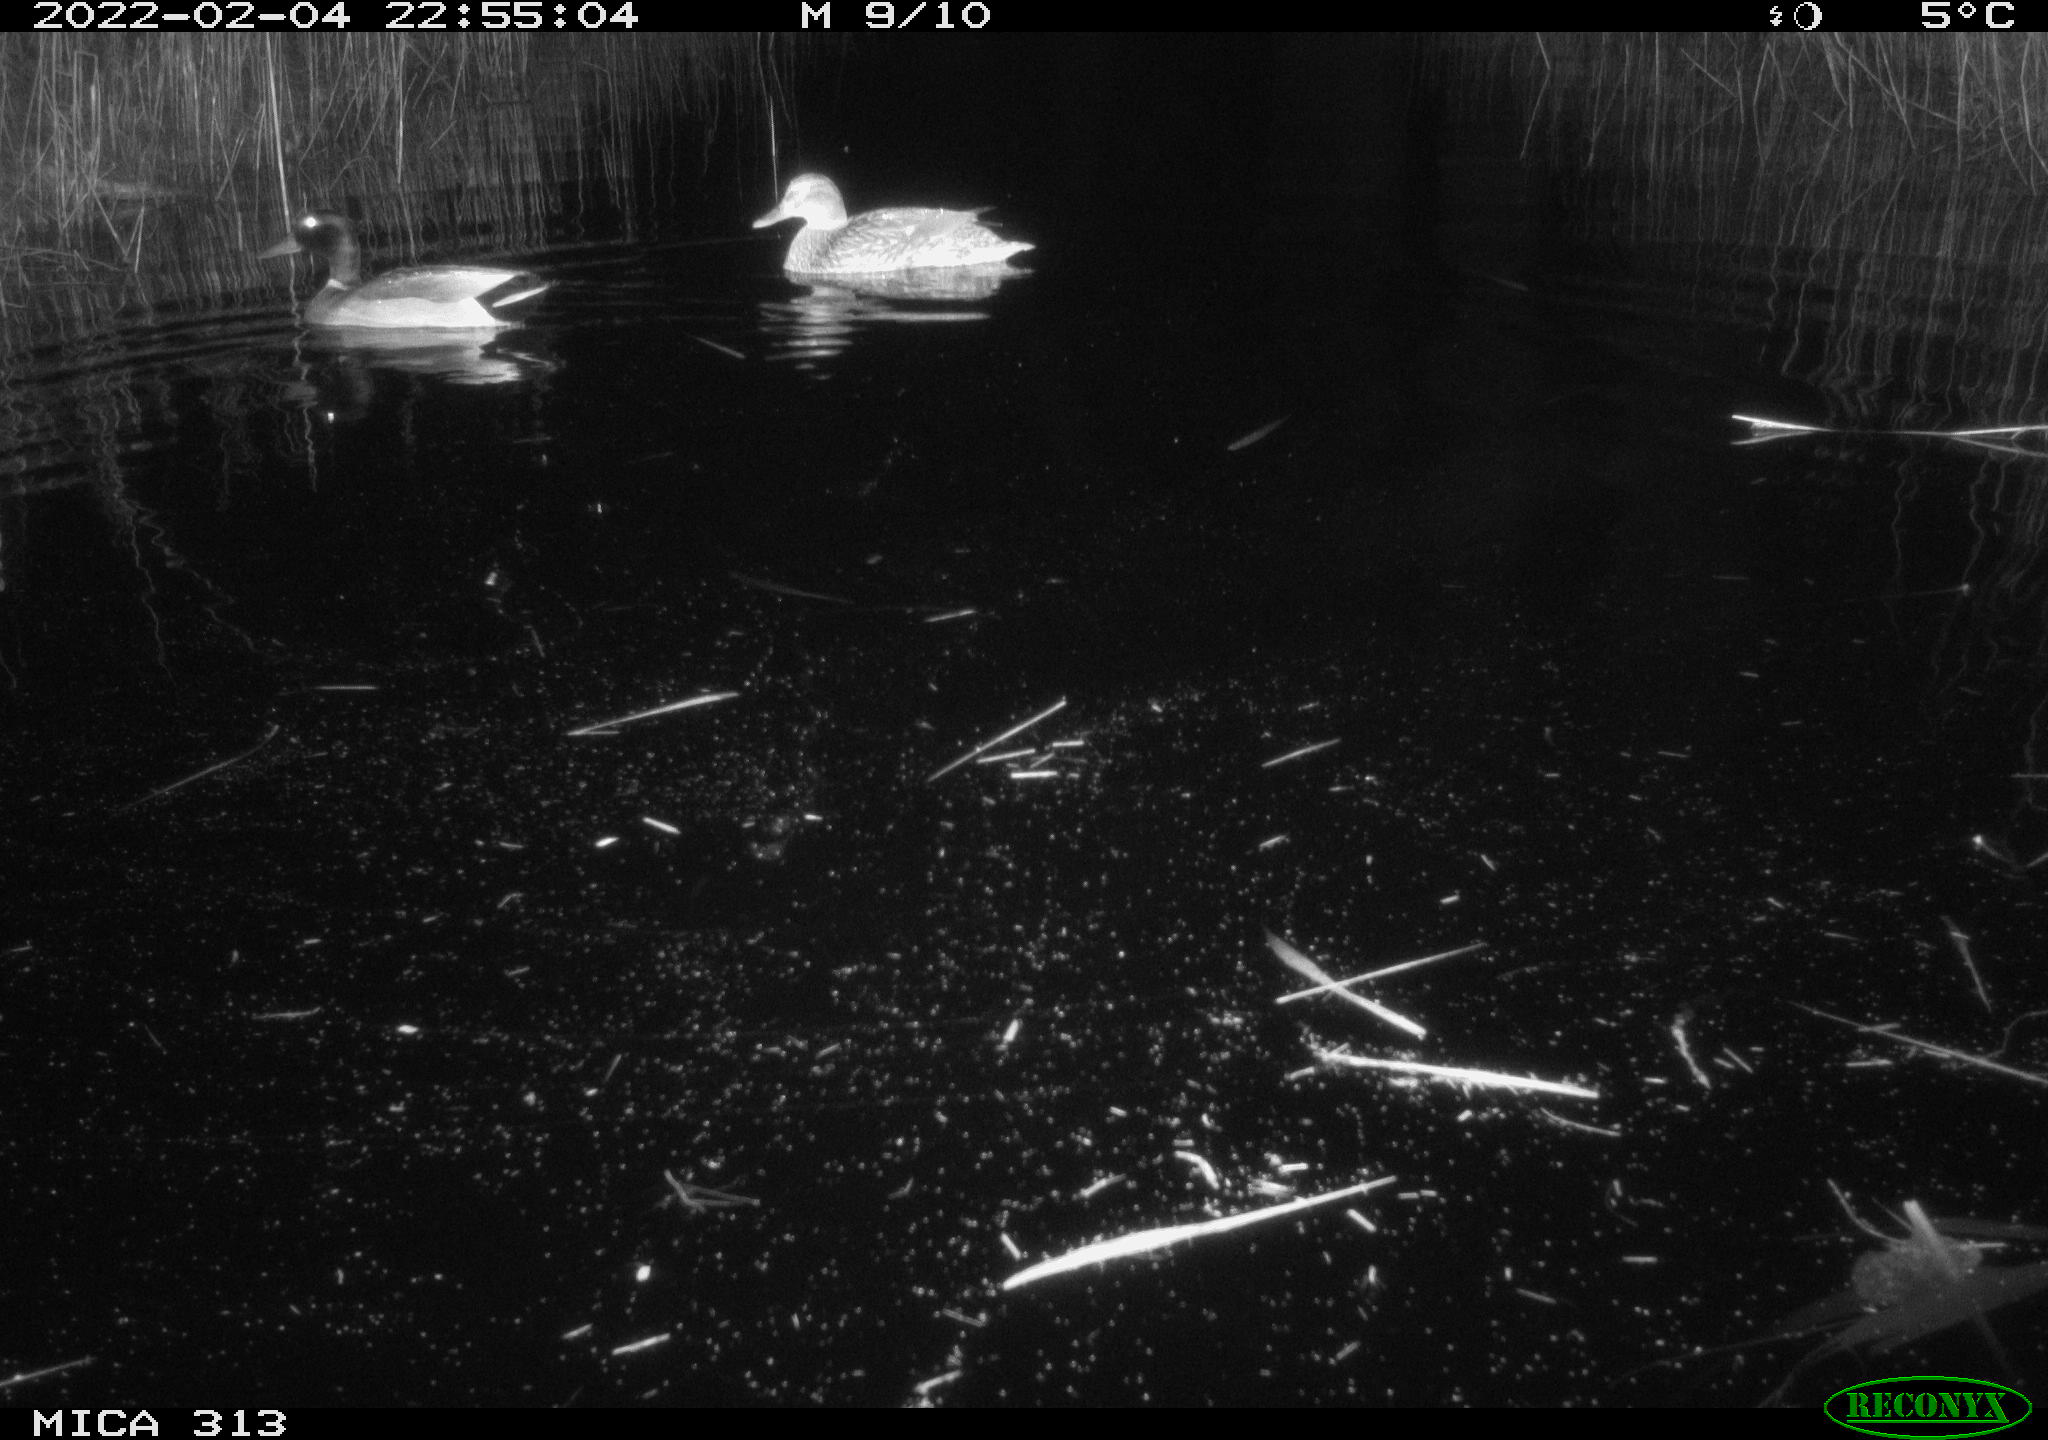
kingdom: Animalia
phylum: Chordata
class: Aves
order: Anseriformes
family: Anatidae
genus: Mareca
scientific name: Mareca strepera
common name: Gadwall
